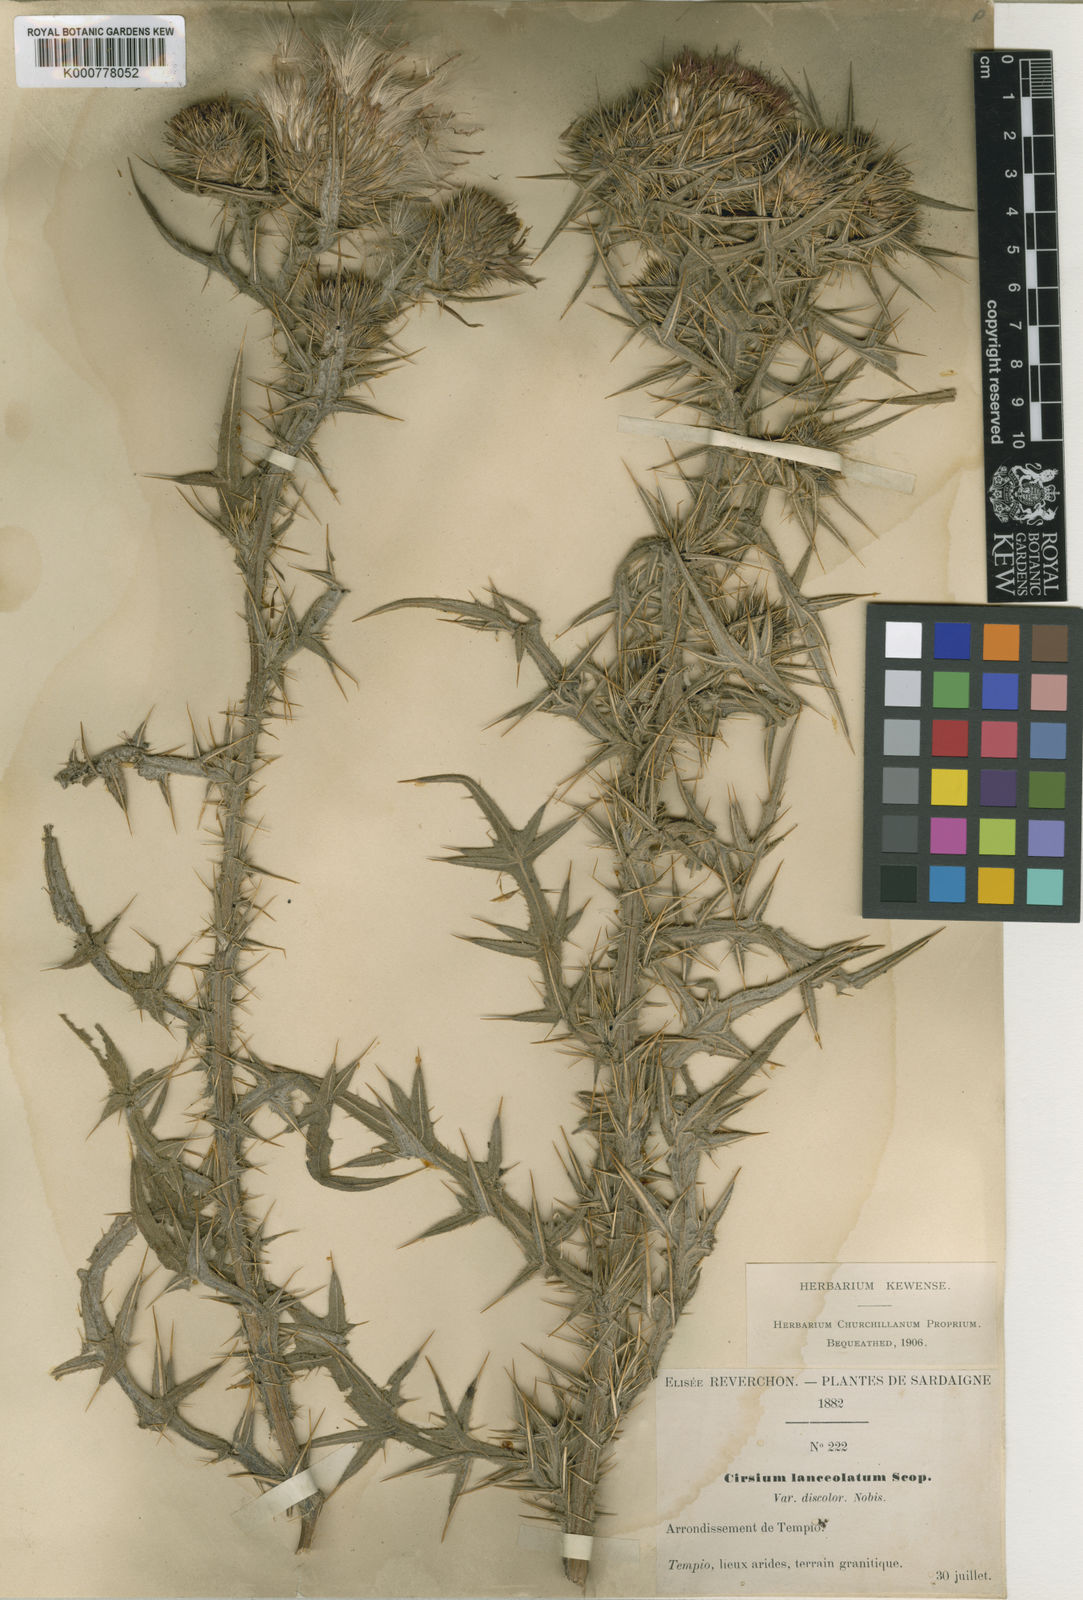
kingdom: Plantae
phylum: Tracheophyta
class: Magnoliopsida
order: Asterales
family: Asteraceae
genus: Cirsium
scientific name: Cirsium vulgare
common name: Bull thistle
